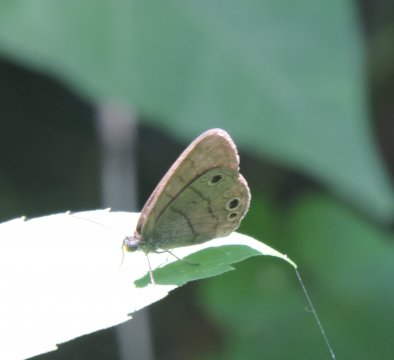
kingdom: Animalia
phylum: Arthropoda
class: Insecta
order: Lepidoptera
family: Nymphalidae
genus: Hermeuptychia
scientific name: Hermeuptychia hermes
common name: Carolina Satyr
